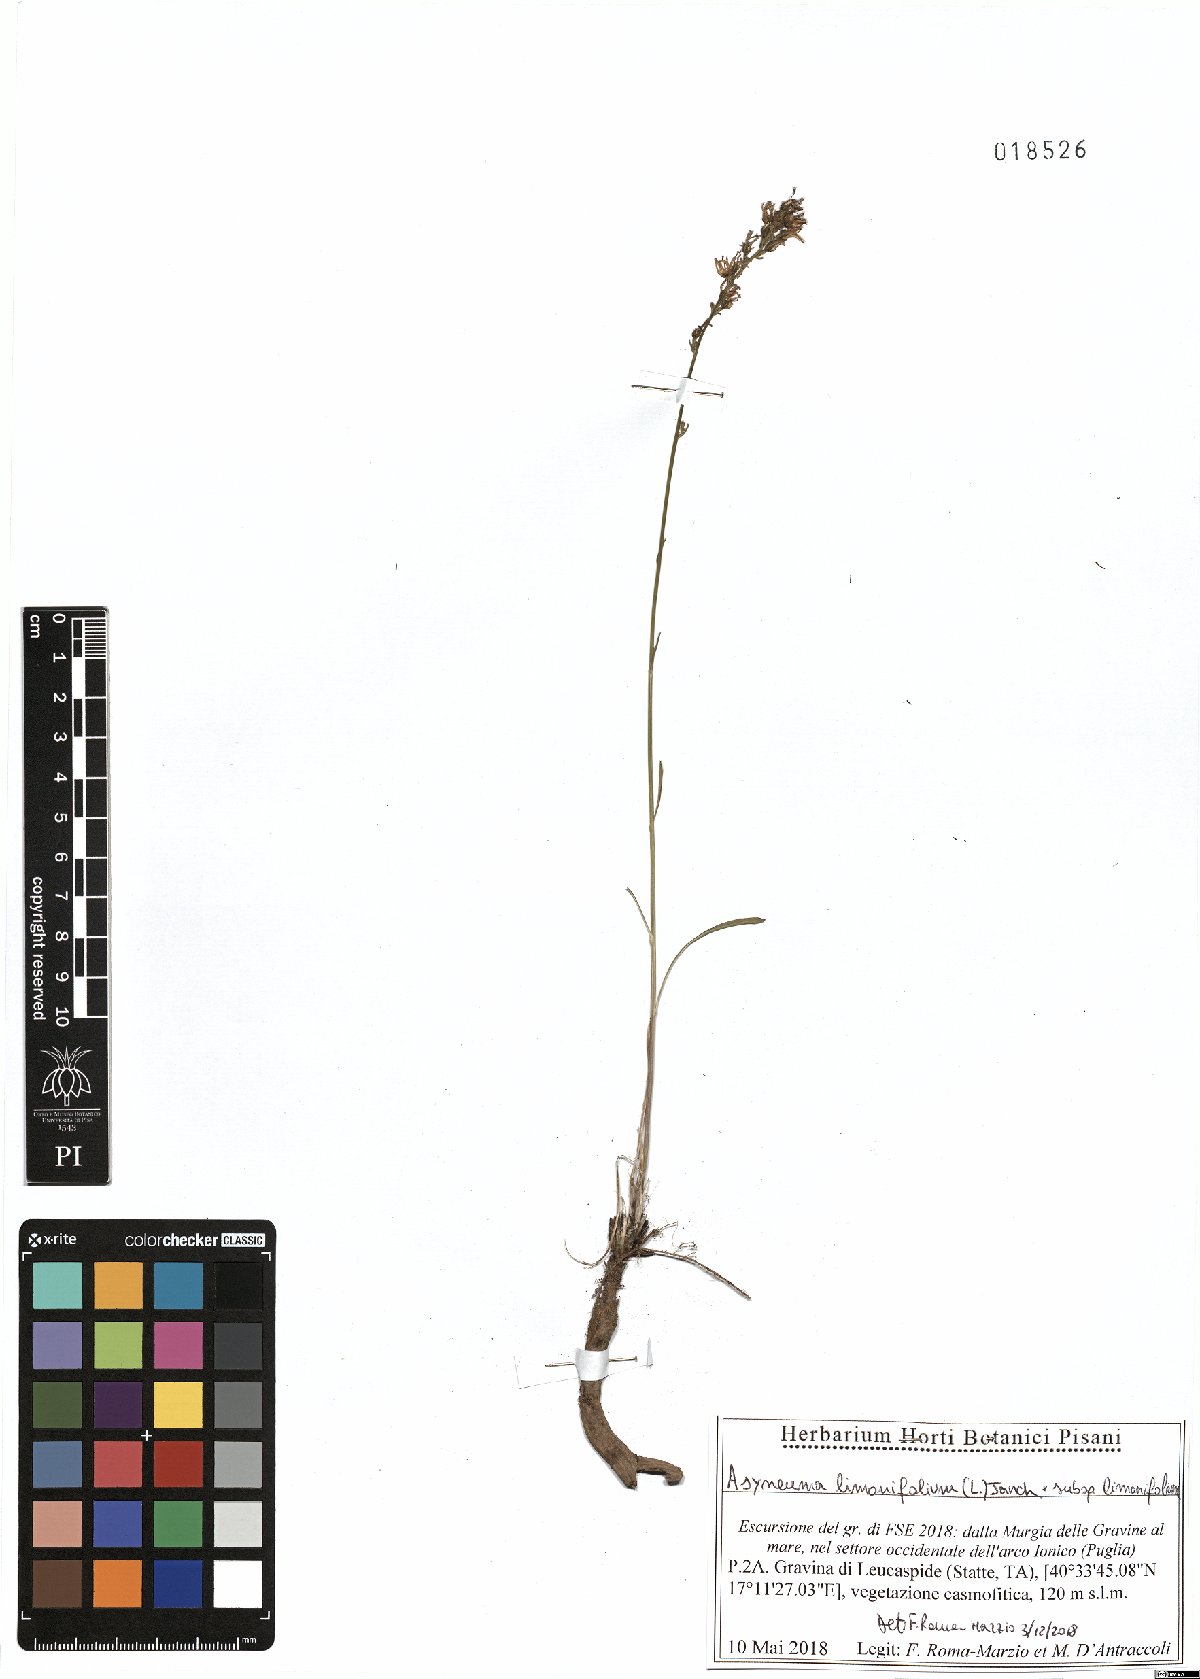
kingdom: Plantae
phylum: Tracheophyta
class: Magnoliopsida
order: Asterales
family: Campanulaceae
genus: Asyneuma
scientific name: Asyneuma limonifolium
